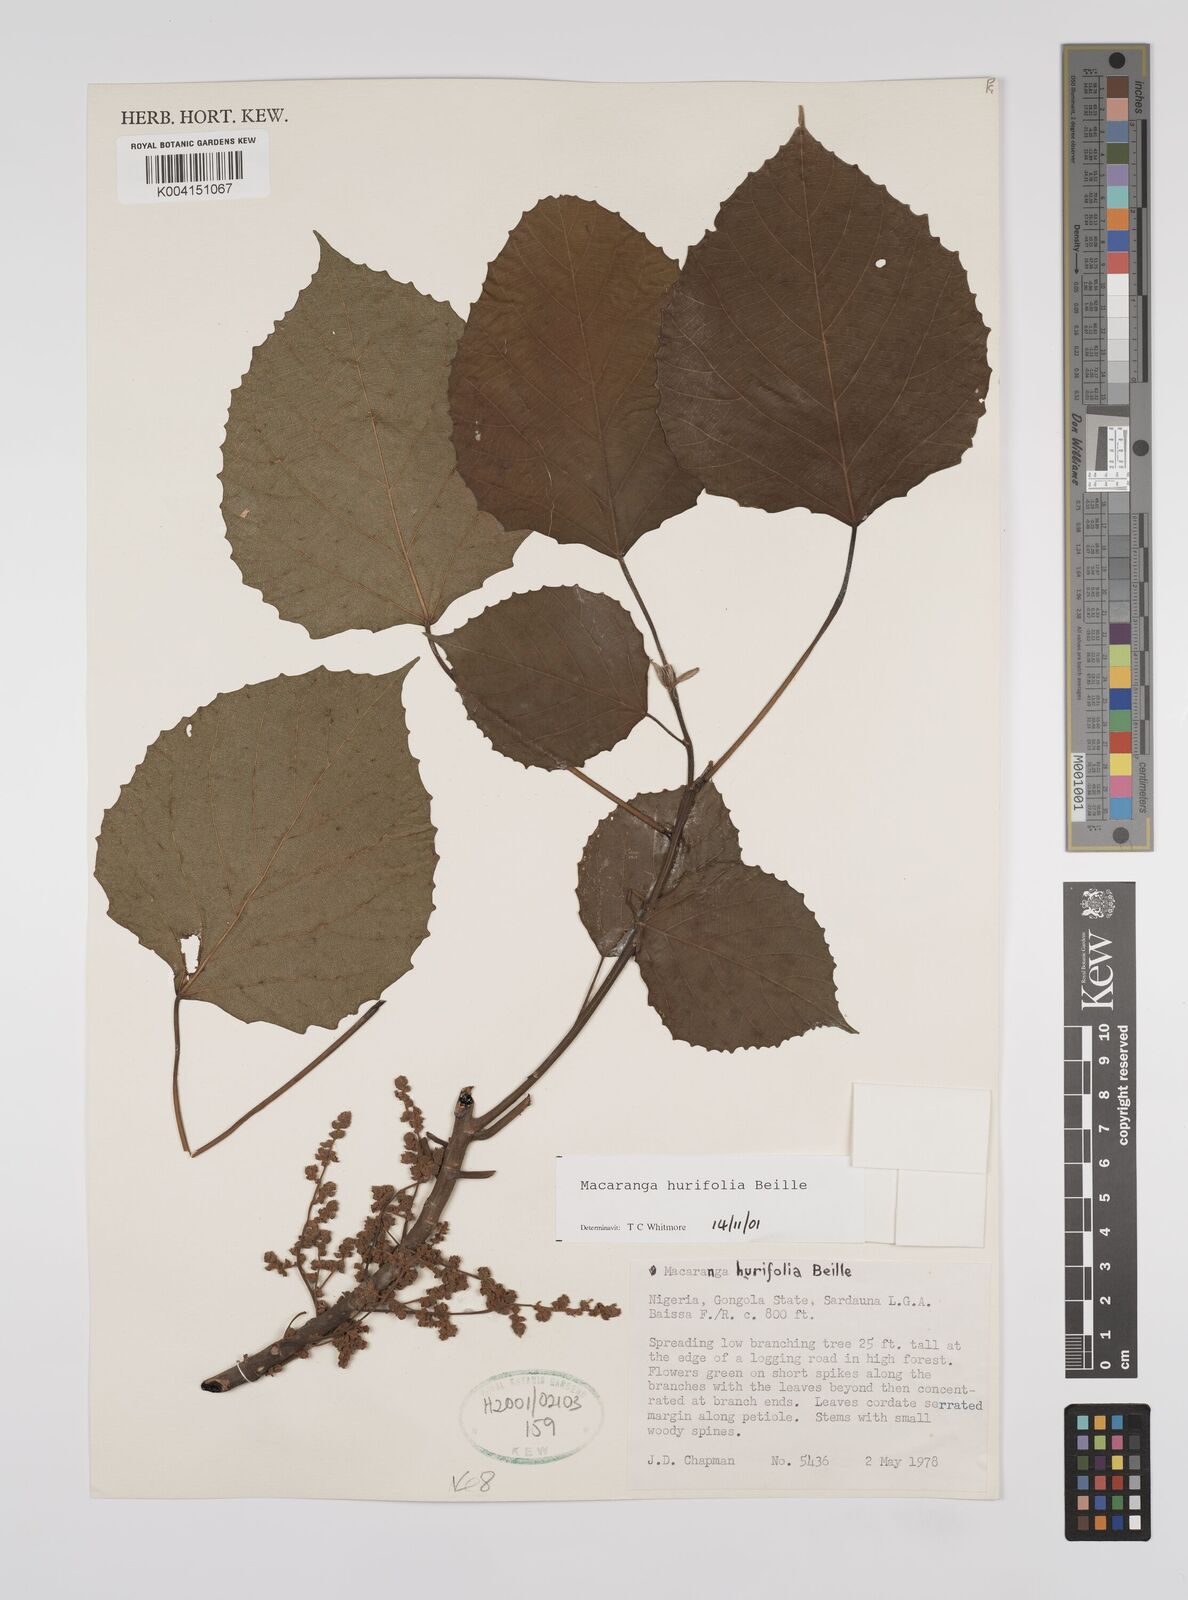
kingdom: Plantae
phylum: Tracheophyta
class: Magnoliopsida
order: Malpighiales
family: Euphorbiaceae
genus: Macaranga
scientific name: Macaranga hurifolia
